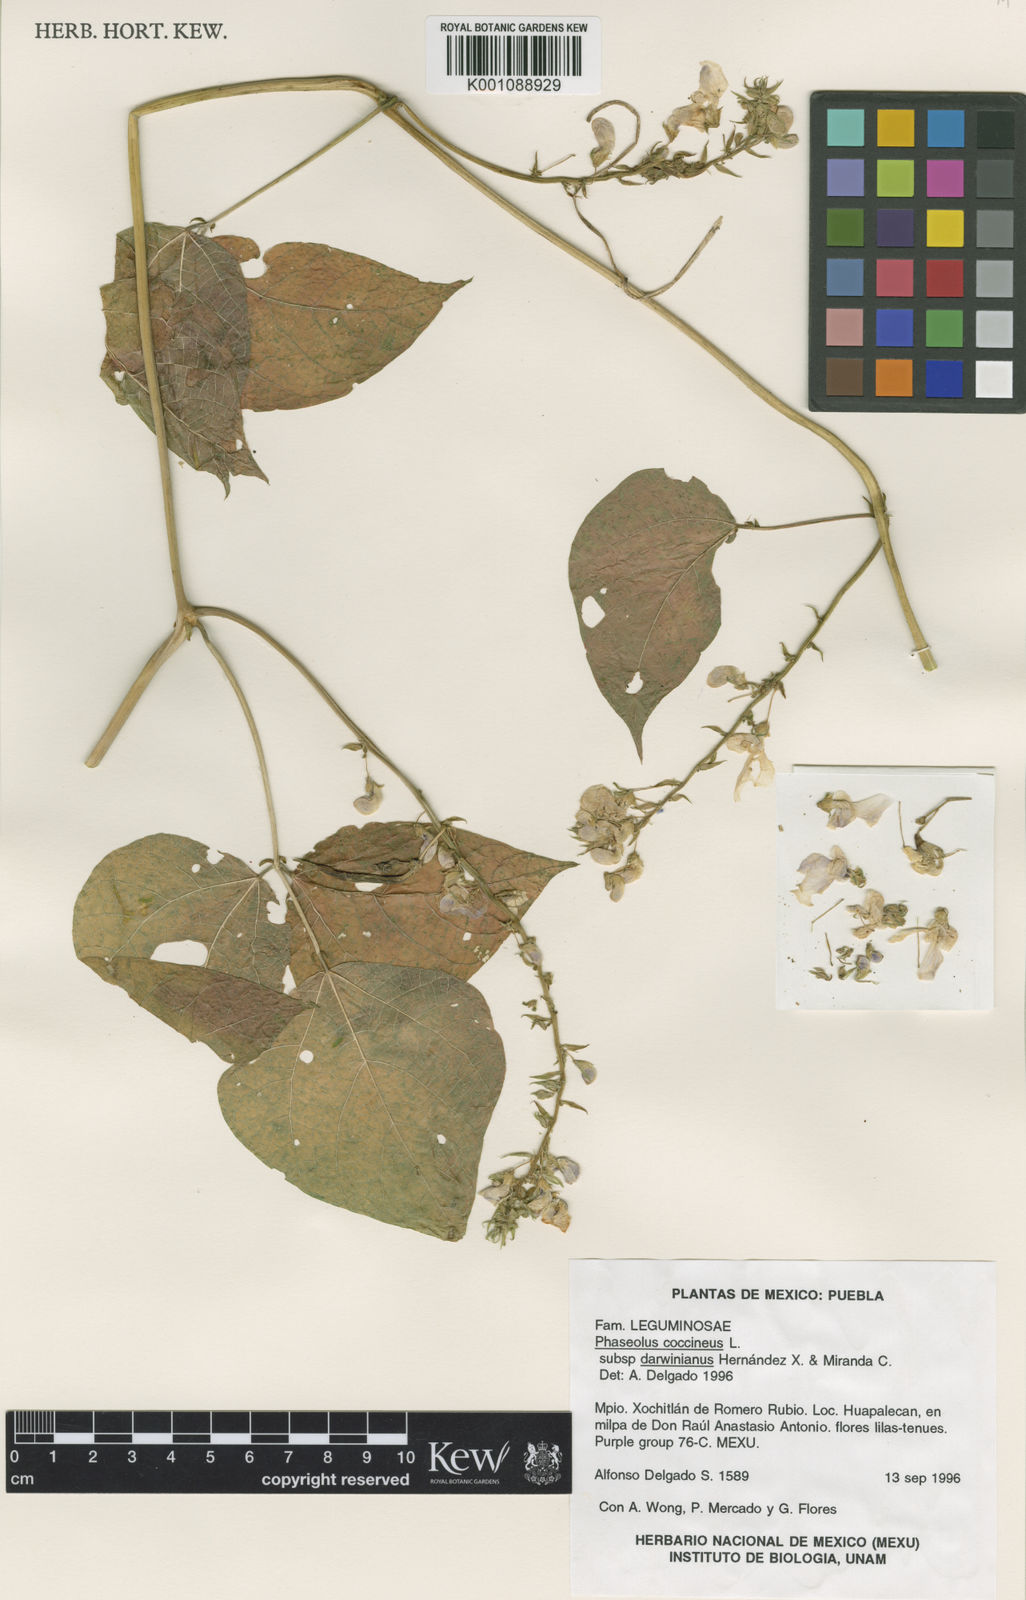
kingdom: Plantae
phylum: Tracheophyta
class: Magnoliopsida
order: Fabales
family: Fabaceae
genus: Phaseolus
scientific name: Phaseolus
